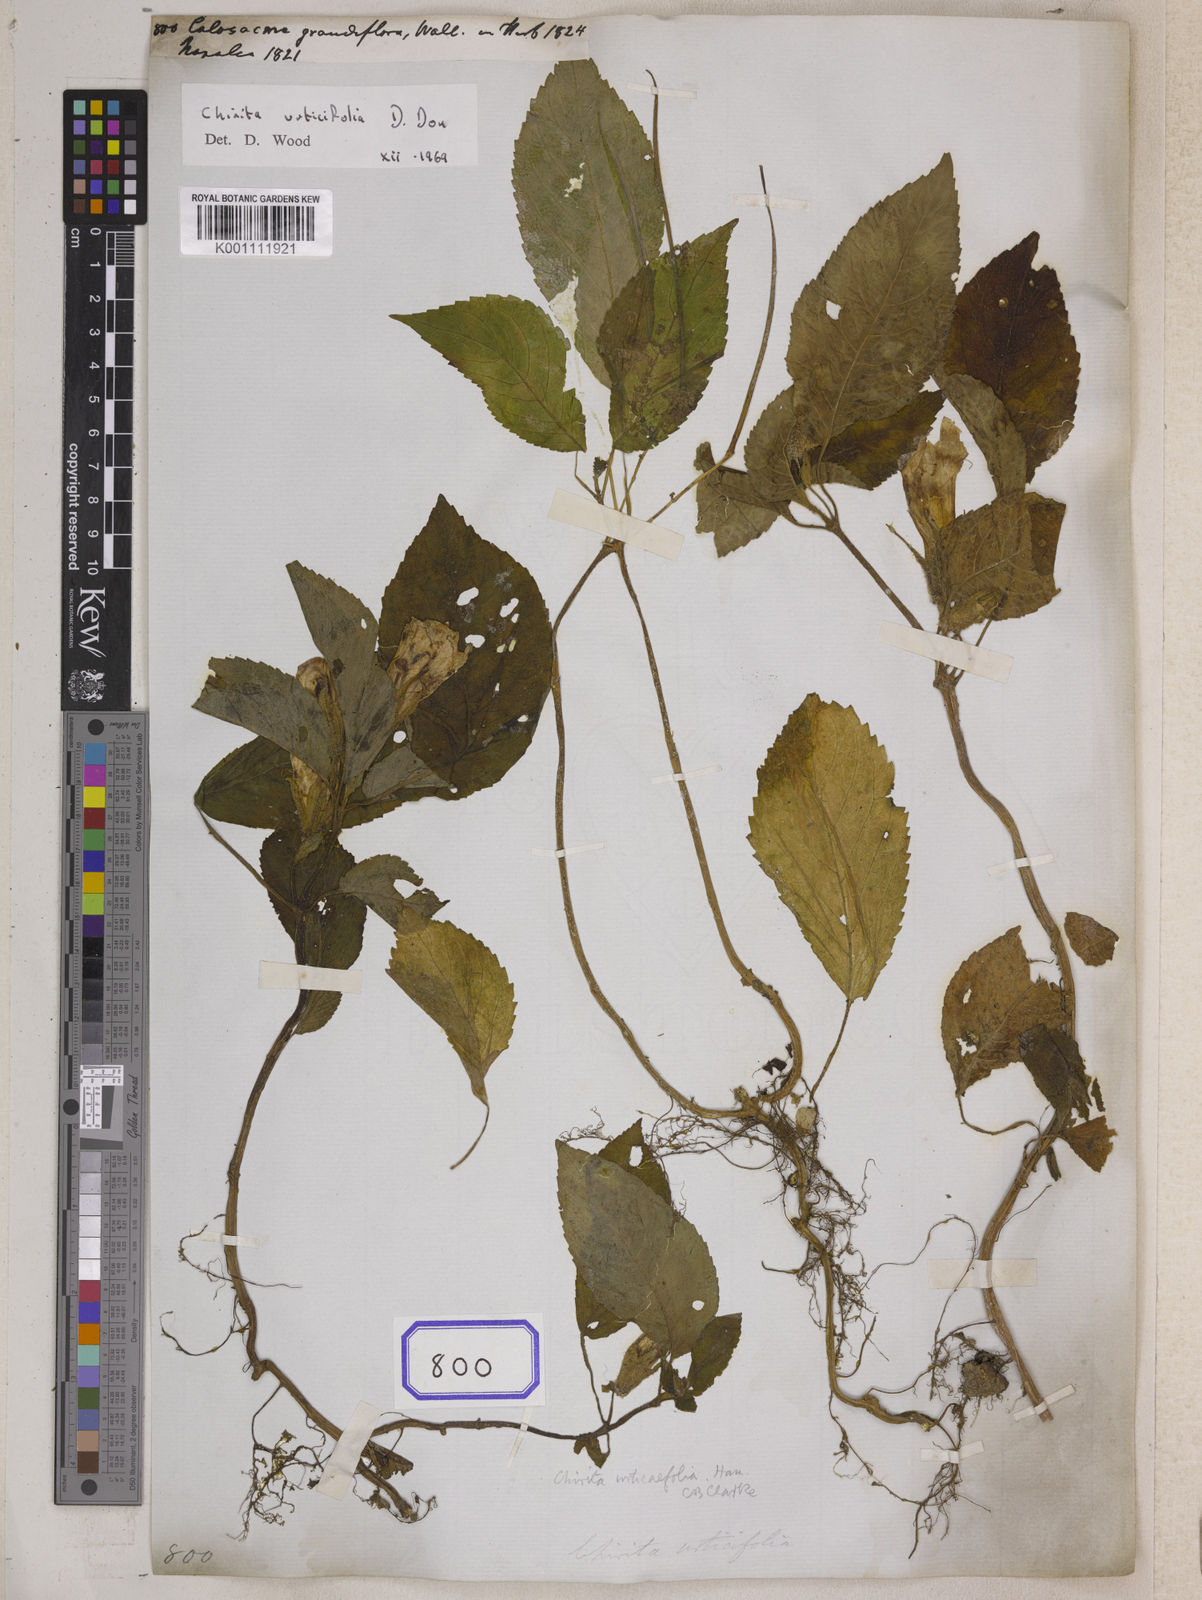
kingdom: Plantae
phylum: Tracheophyta
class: Magnoliopsida
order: Lamiales
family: Gesneriaceae
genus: Henckelia
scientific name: Henckelia urticifolia
